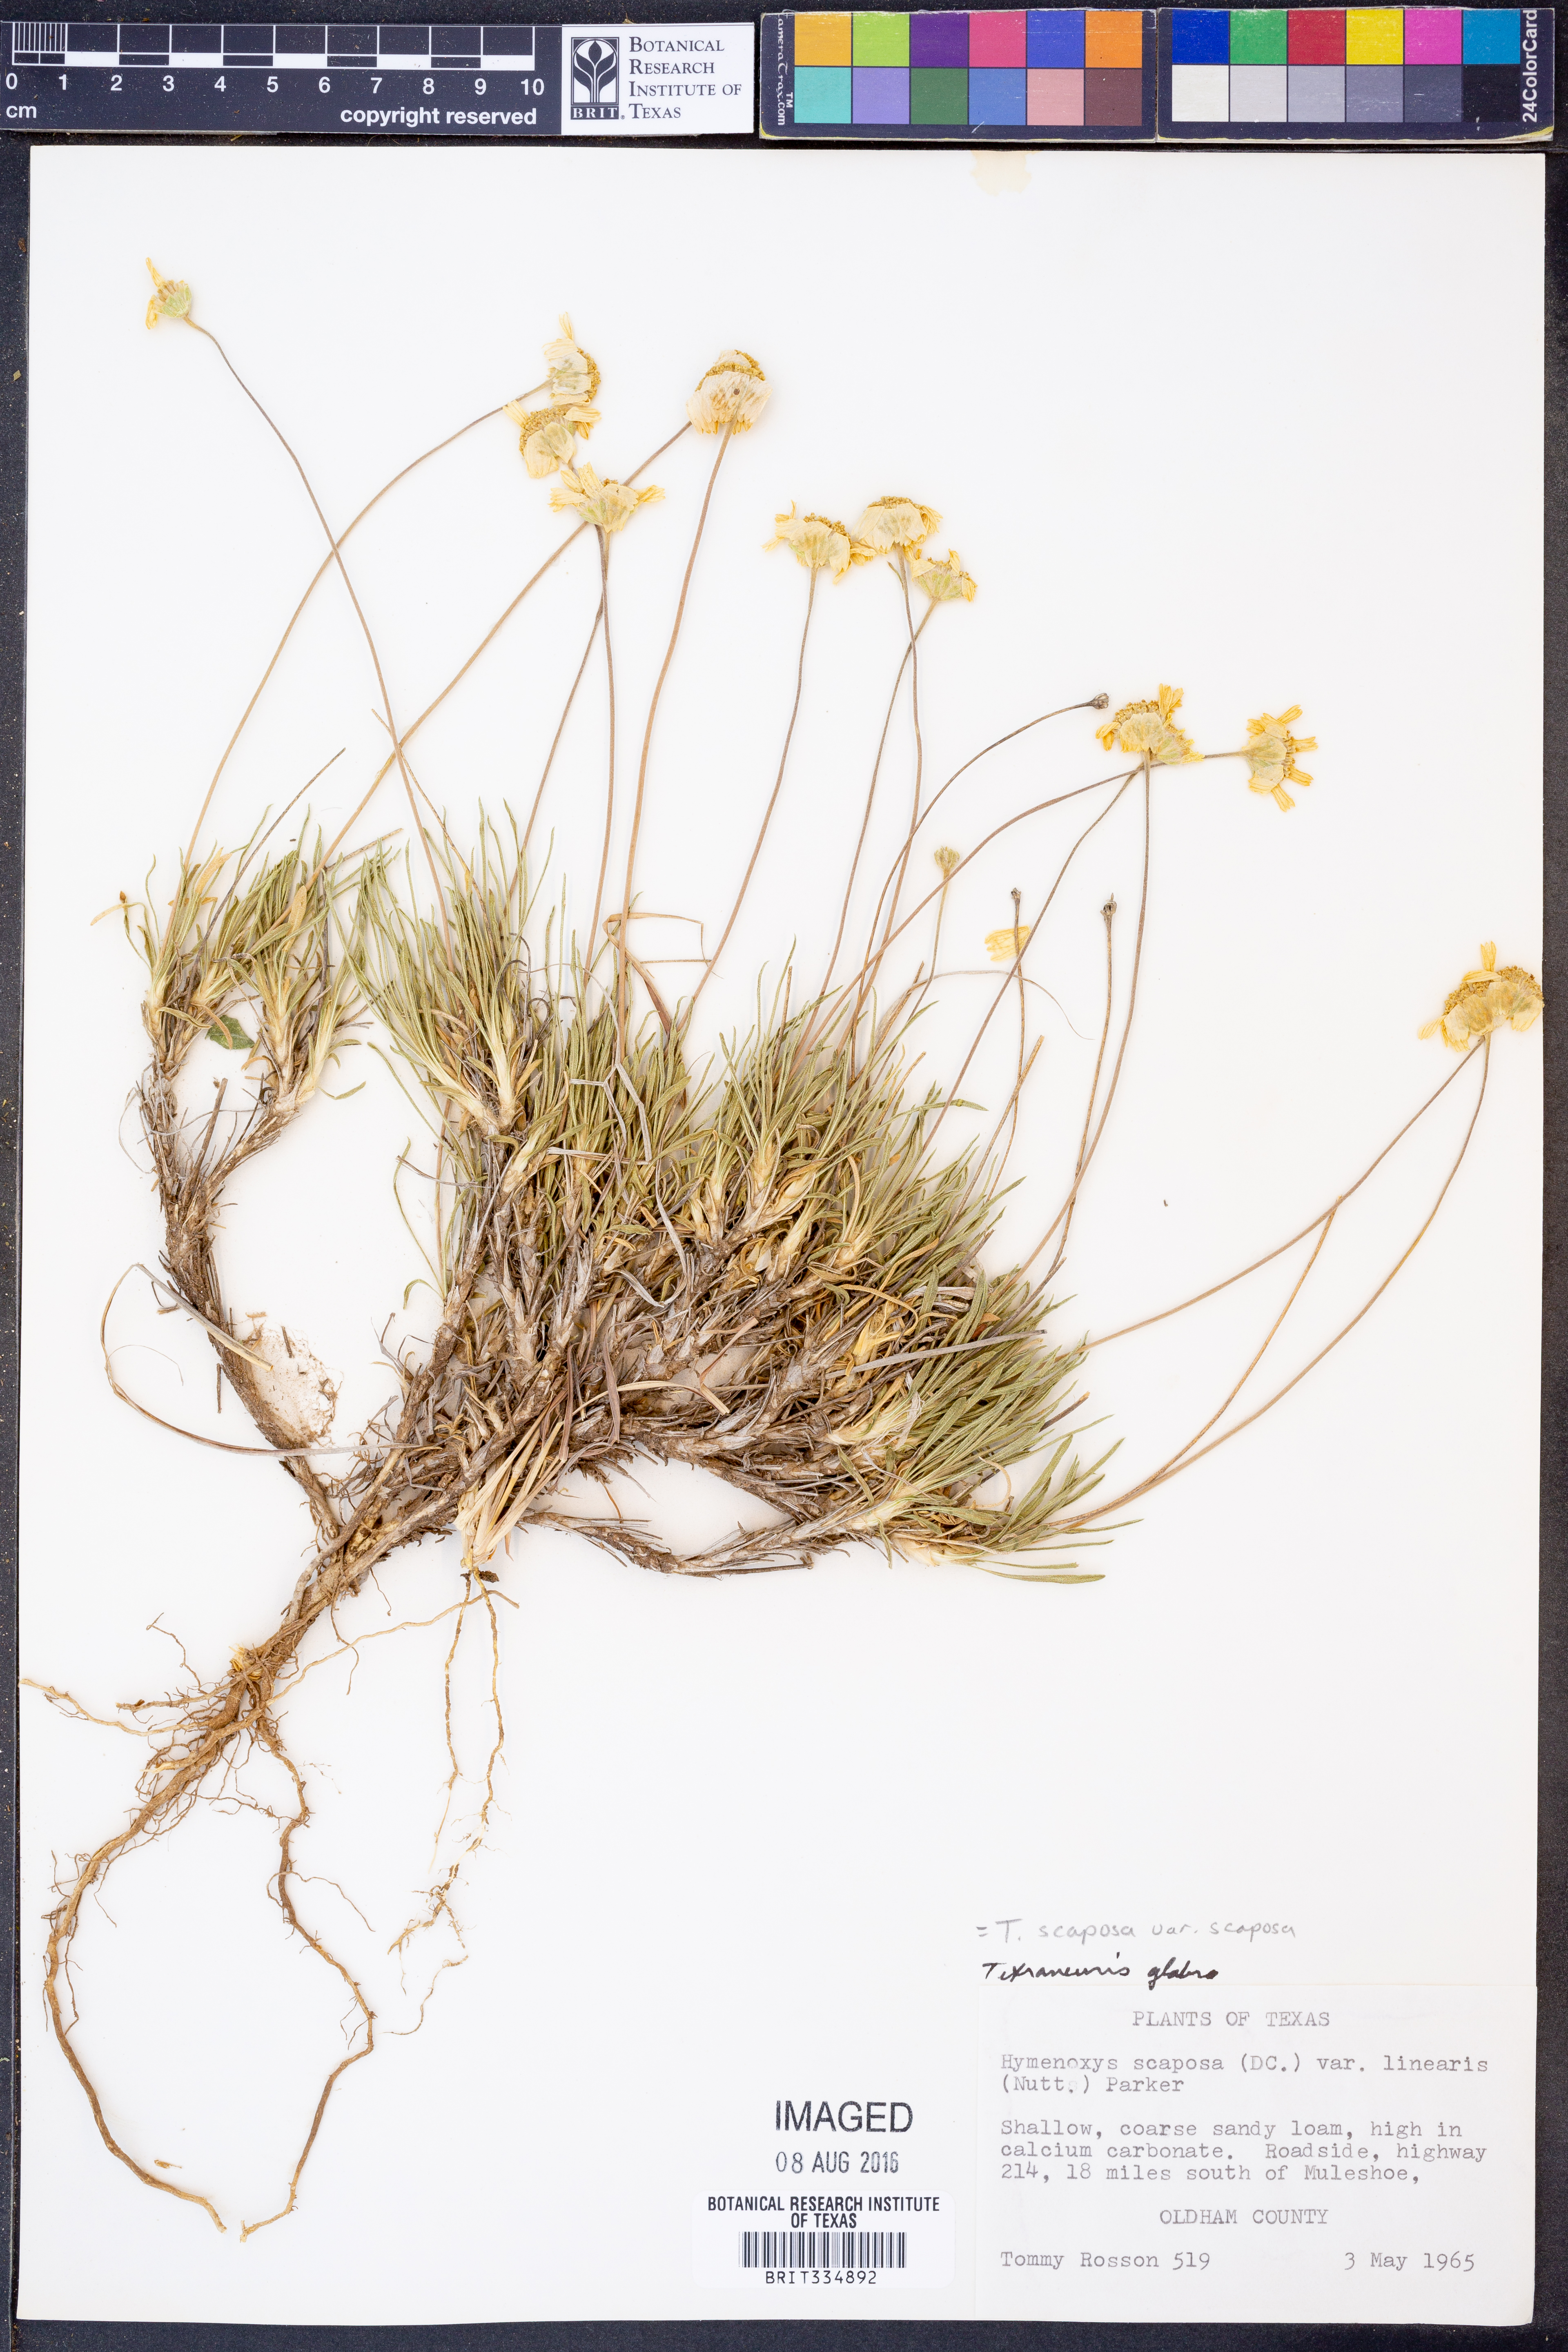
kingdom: Plantae
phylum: Tracheophyta
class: Magnoliopsida
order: Asterales
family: Asteraceae
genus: Tetraneuris
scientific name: Tetraneuris scaposa
